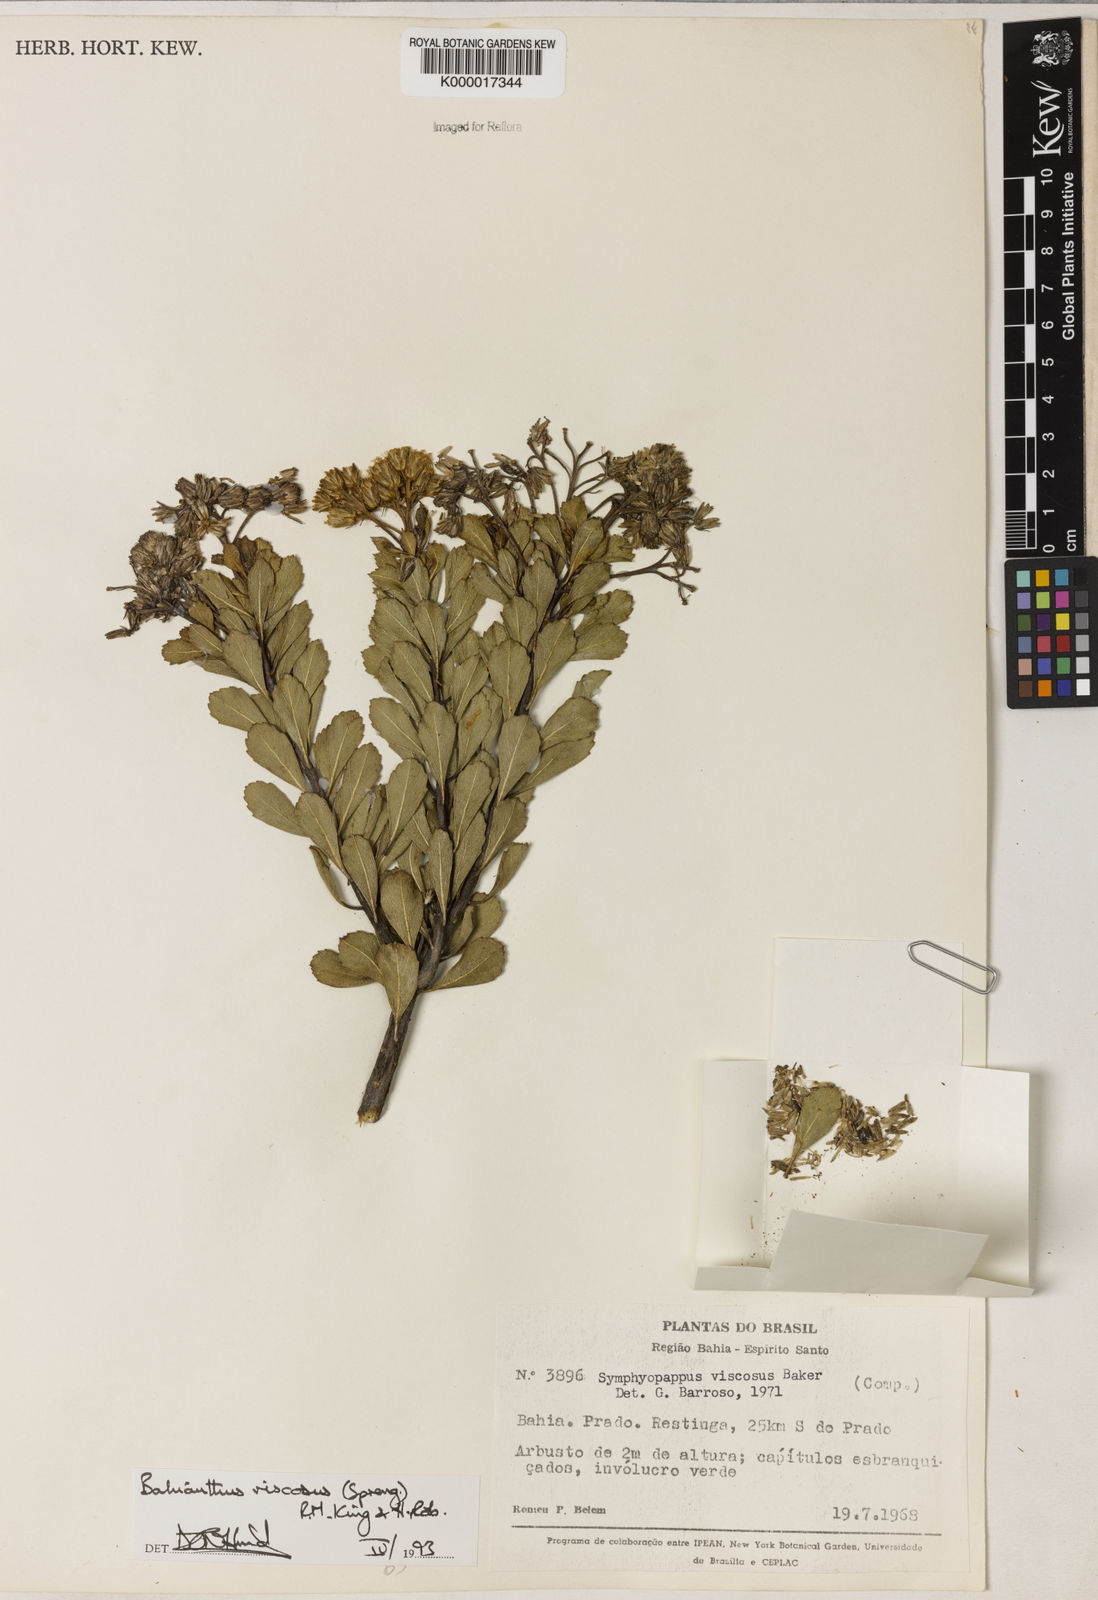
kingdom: Plantae
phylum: Tracheophyta
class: Magnoliopsida
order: Asterales
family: Asteraceae
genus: Bahianthus
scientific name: Bahianthus viscosus
